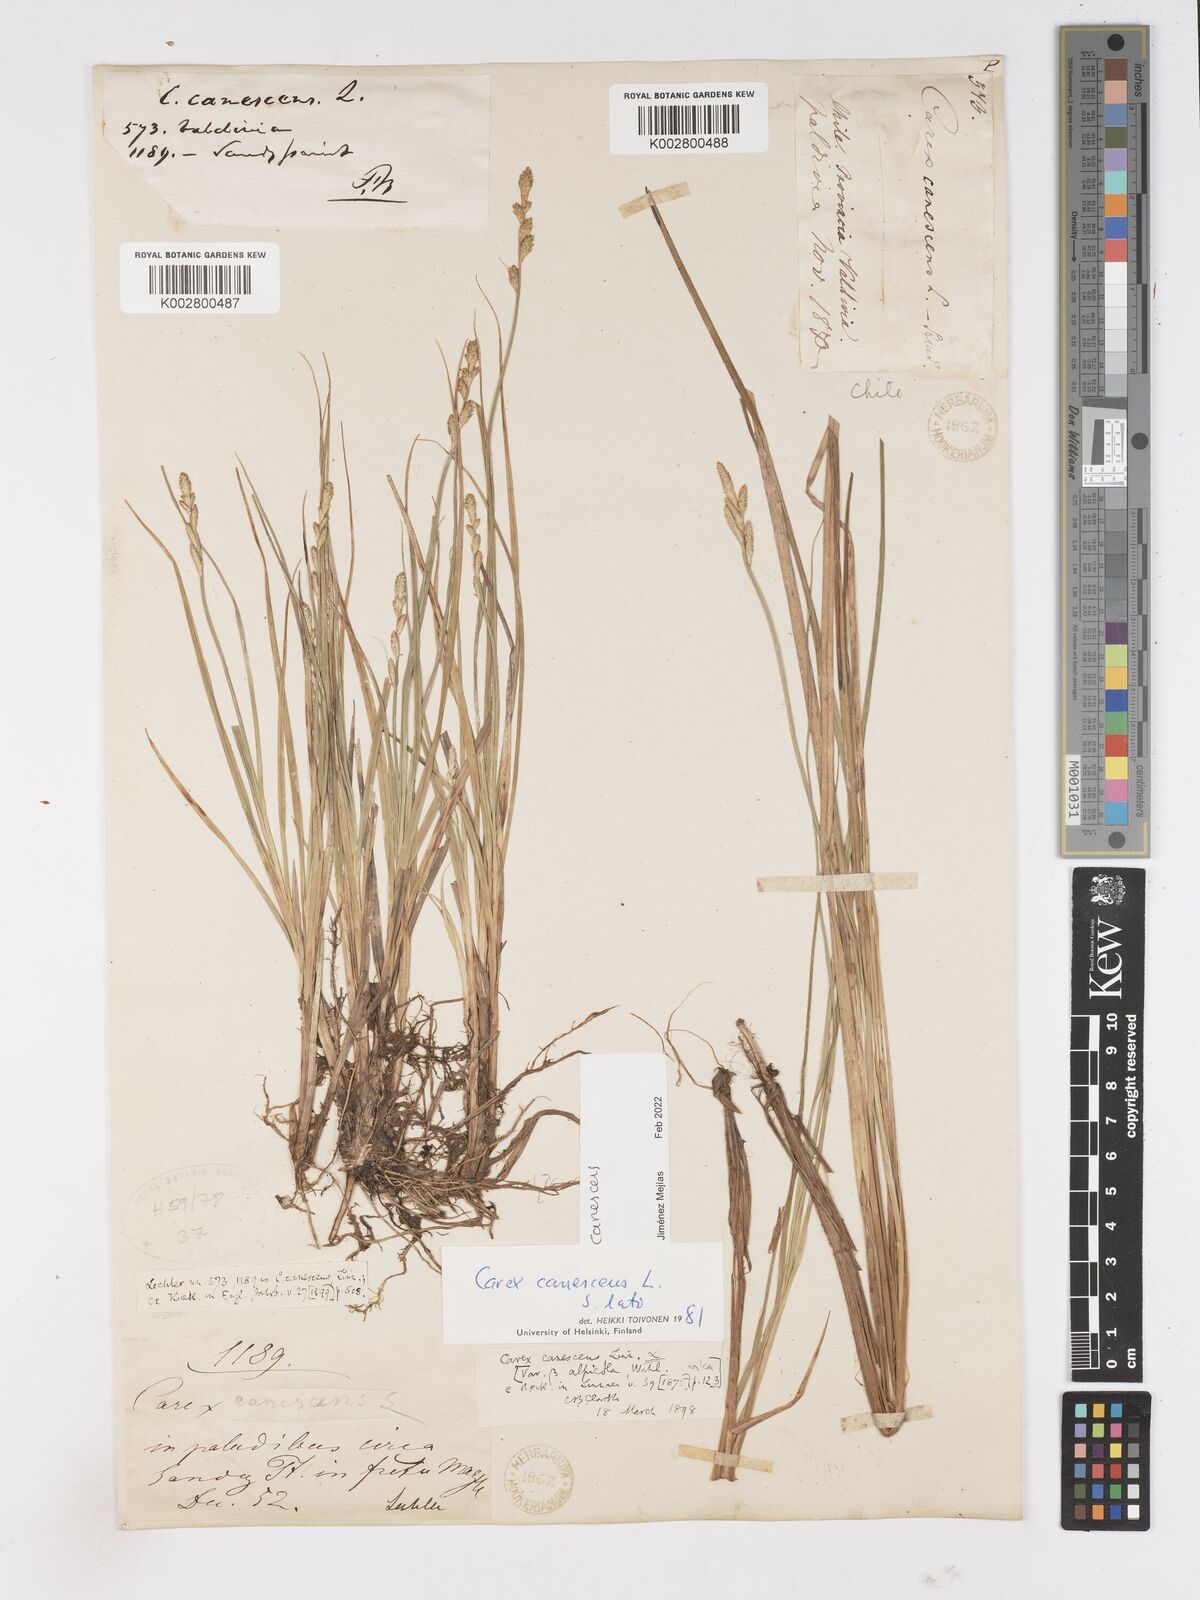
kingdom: Plantae
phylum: Tracheophyta
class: Liliopsida
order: Poales
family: Cyperaceae
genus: Carex
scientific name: Carex curta
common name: White sedge
